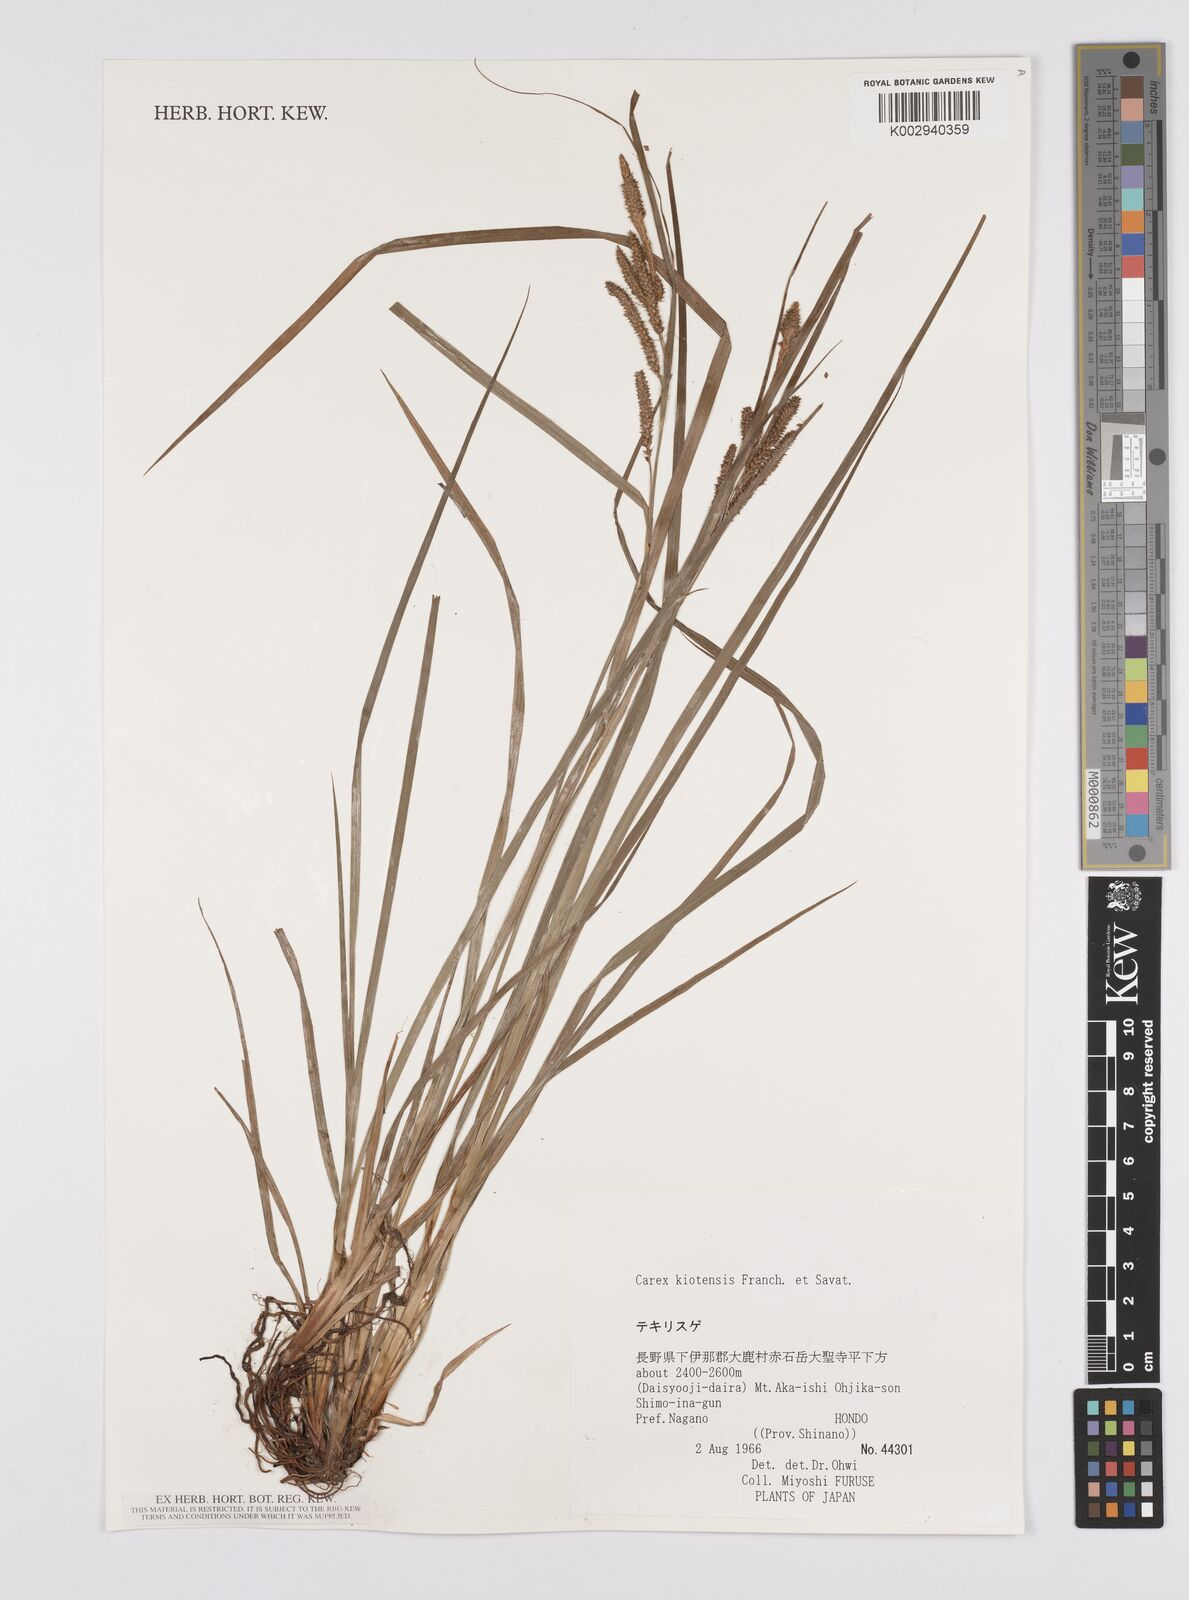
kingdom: Plantae
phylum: Tracheophyta
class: Liliopsida
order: Poales
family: Cyperaceae
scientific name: Cyperaceae
